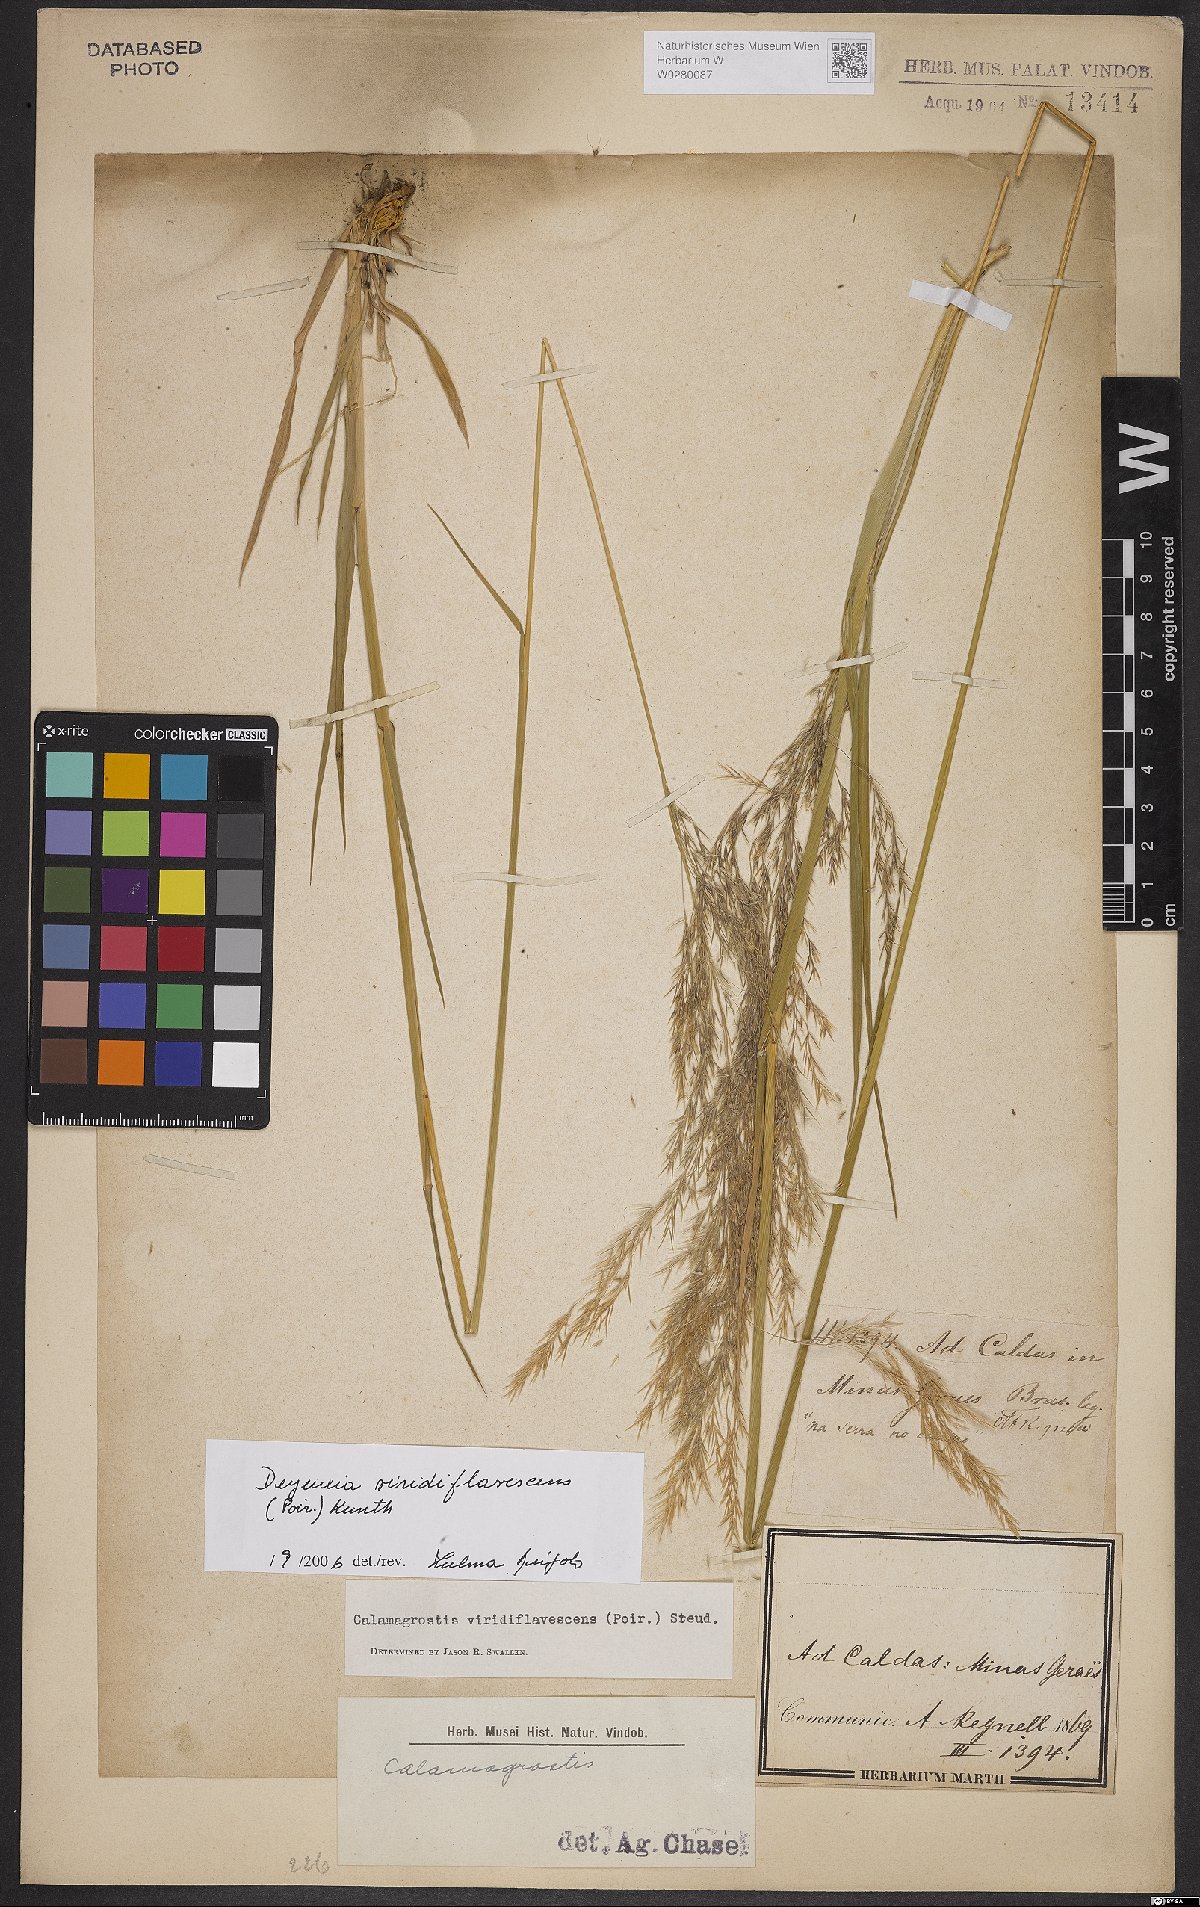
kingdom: Plantae
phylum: Tracheophyta
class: Liliopsida
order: Poales
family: Poaceae
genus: Cinnagrostis
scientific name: Cinnagrostis viridiflavescens
